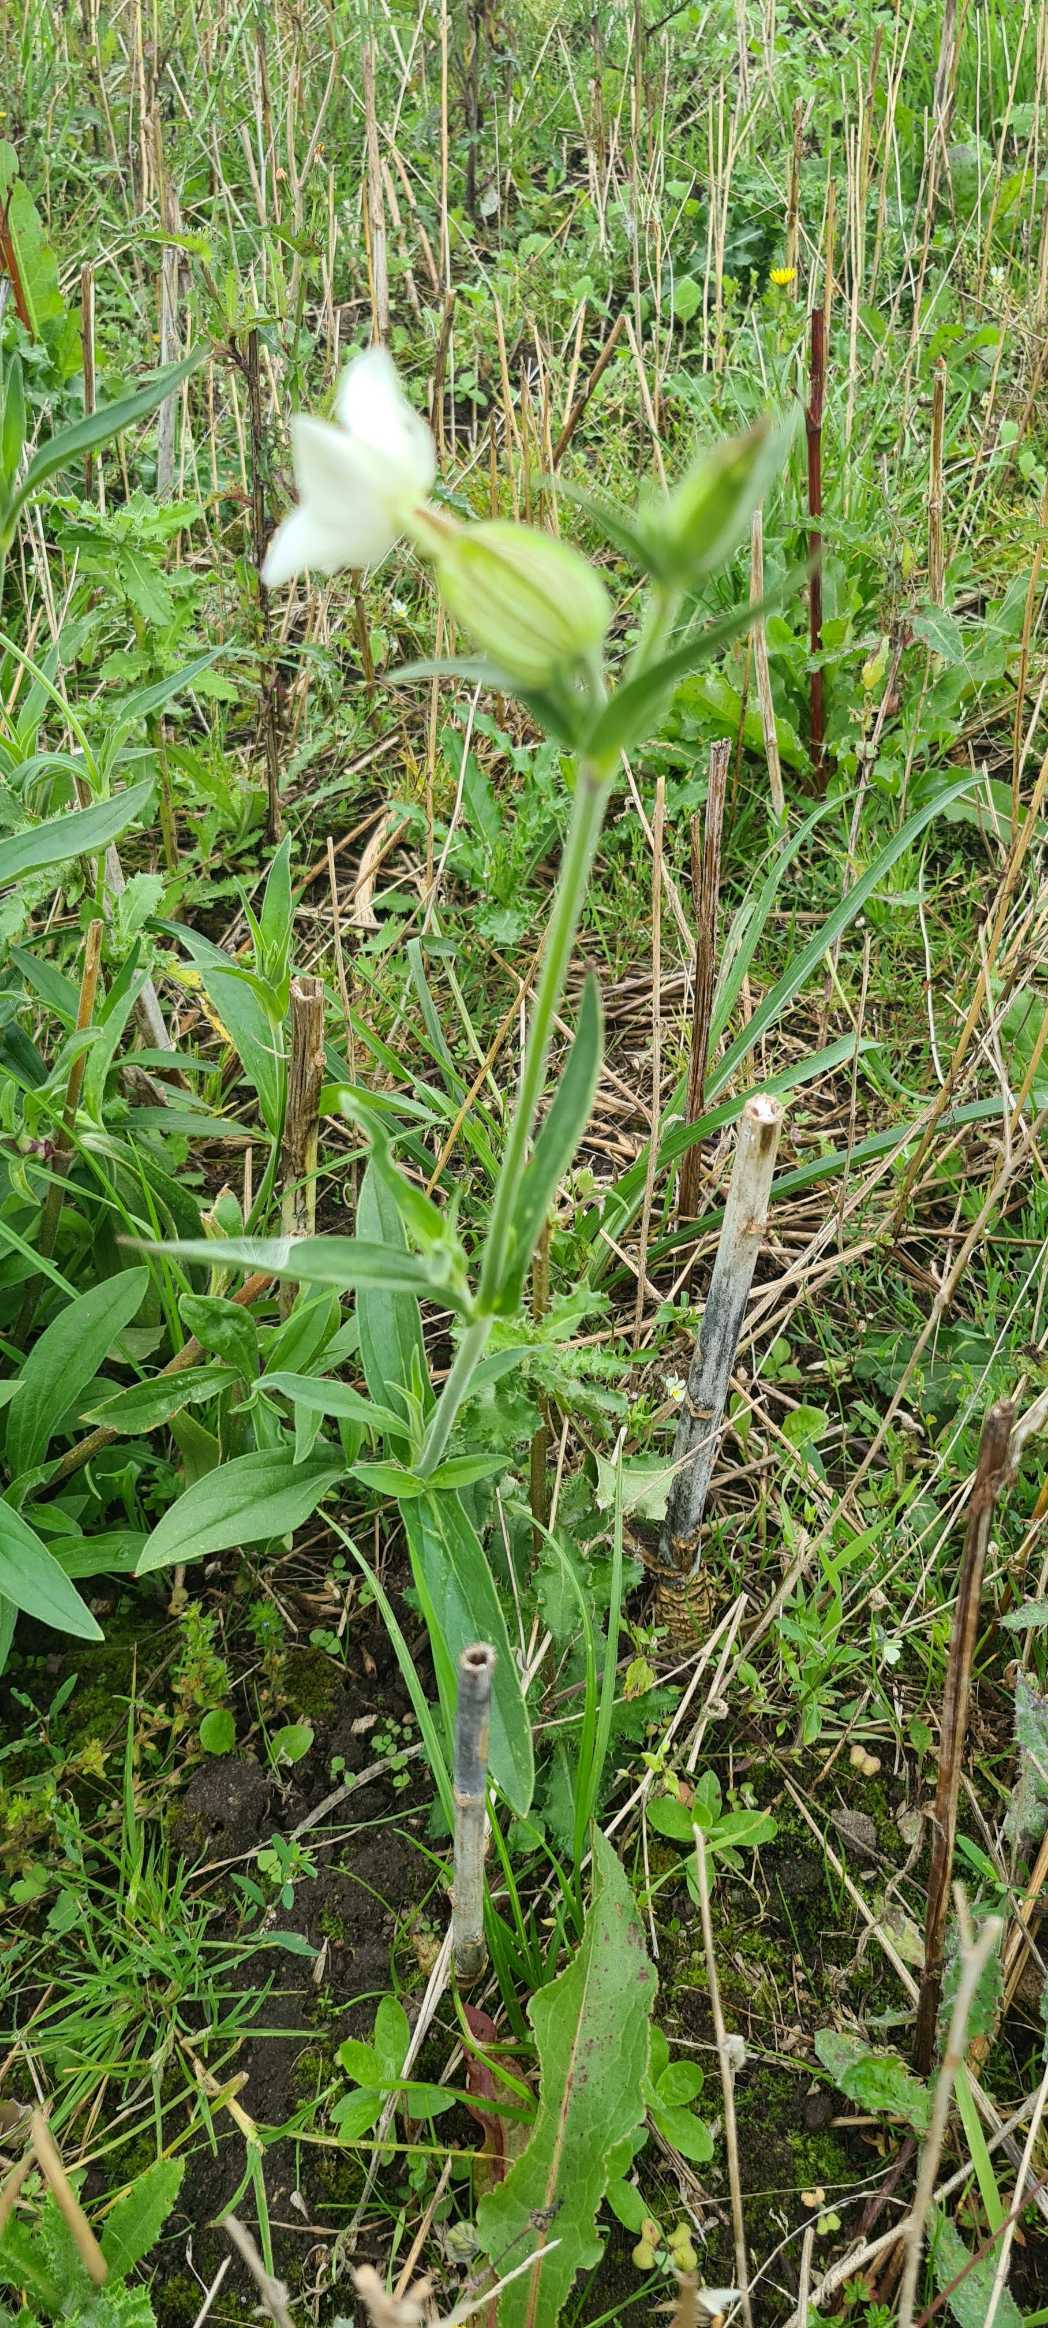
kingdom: Plantae
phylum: Tracheophyta
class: Magnoliopsida
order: Caryophyllales
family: Caryophyllaceae
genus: Silene
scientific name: Silene latifolia
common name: Aftenpragtstjerne
